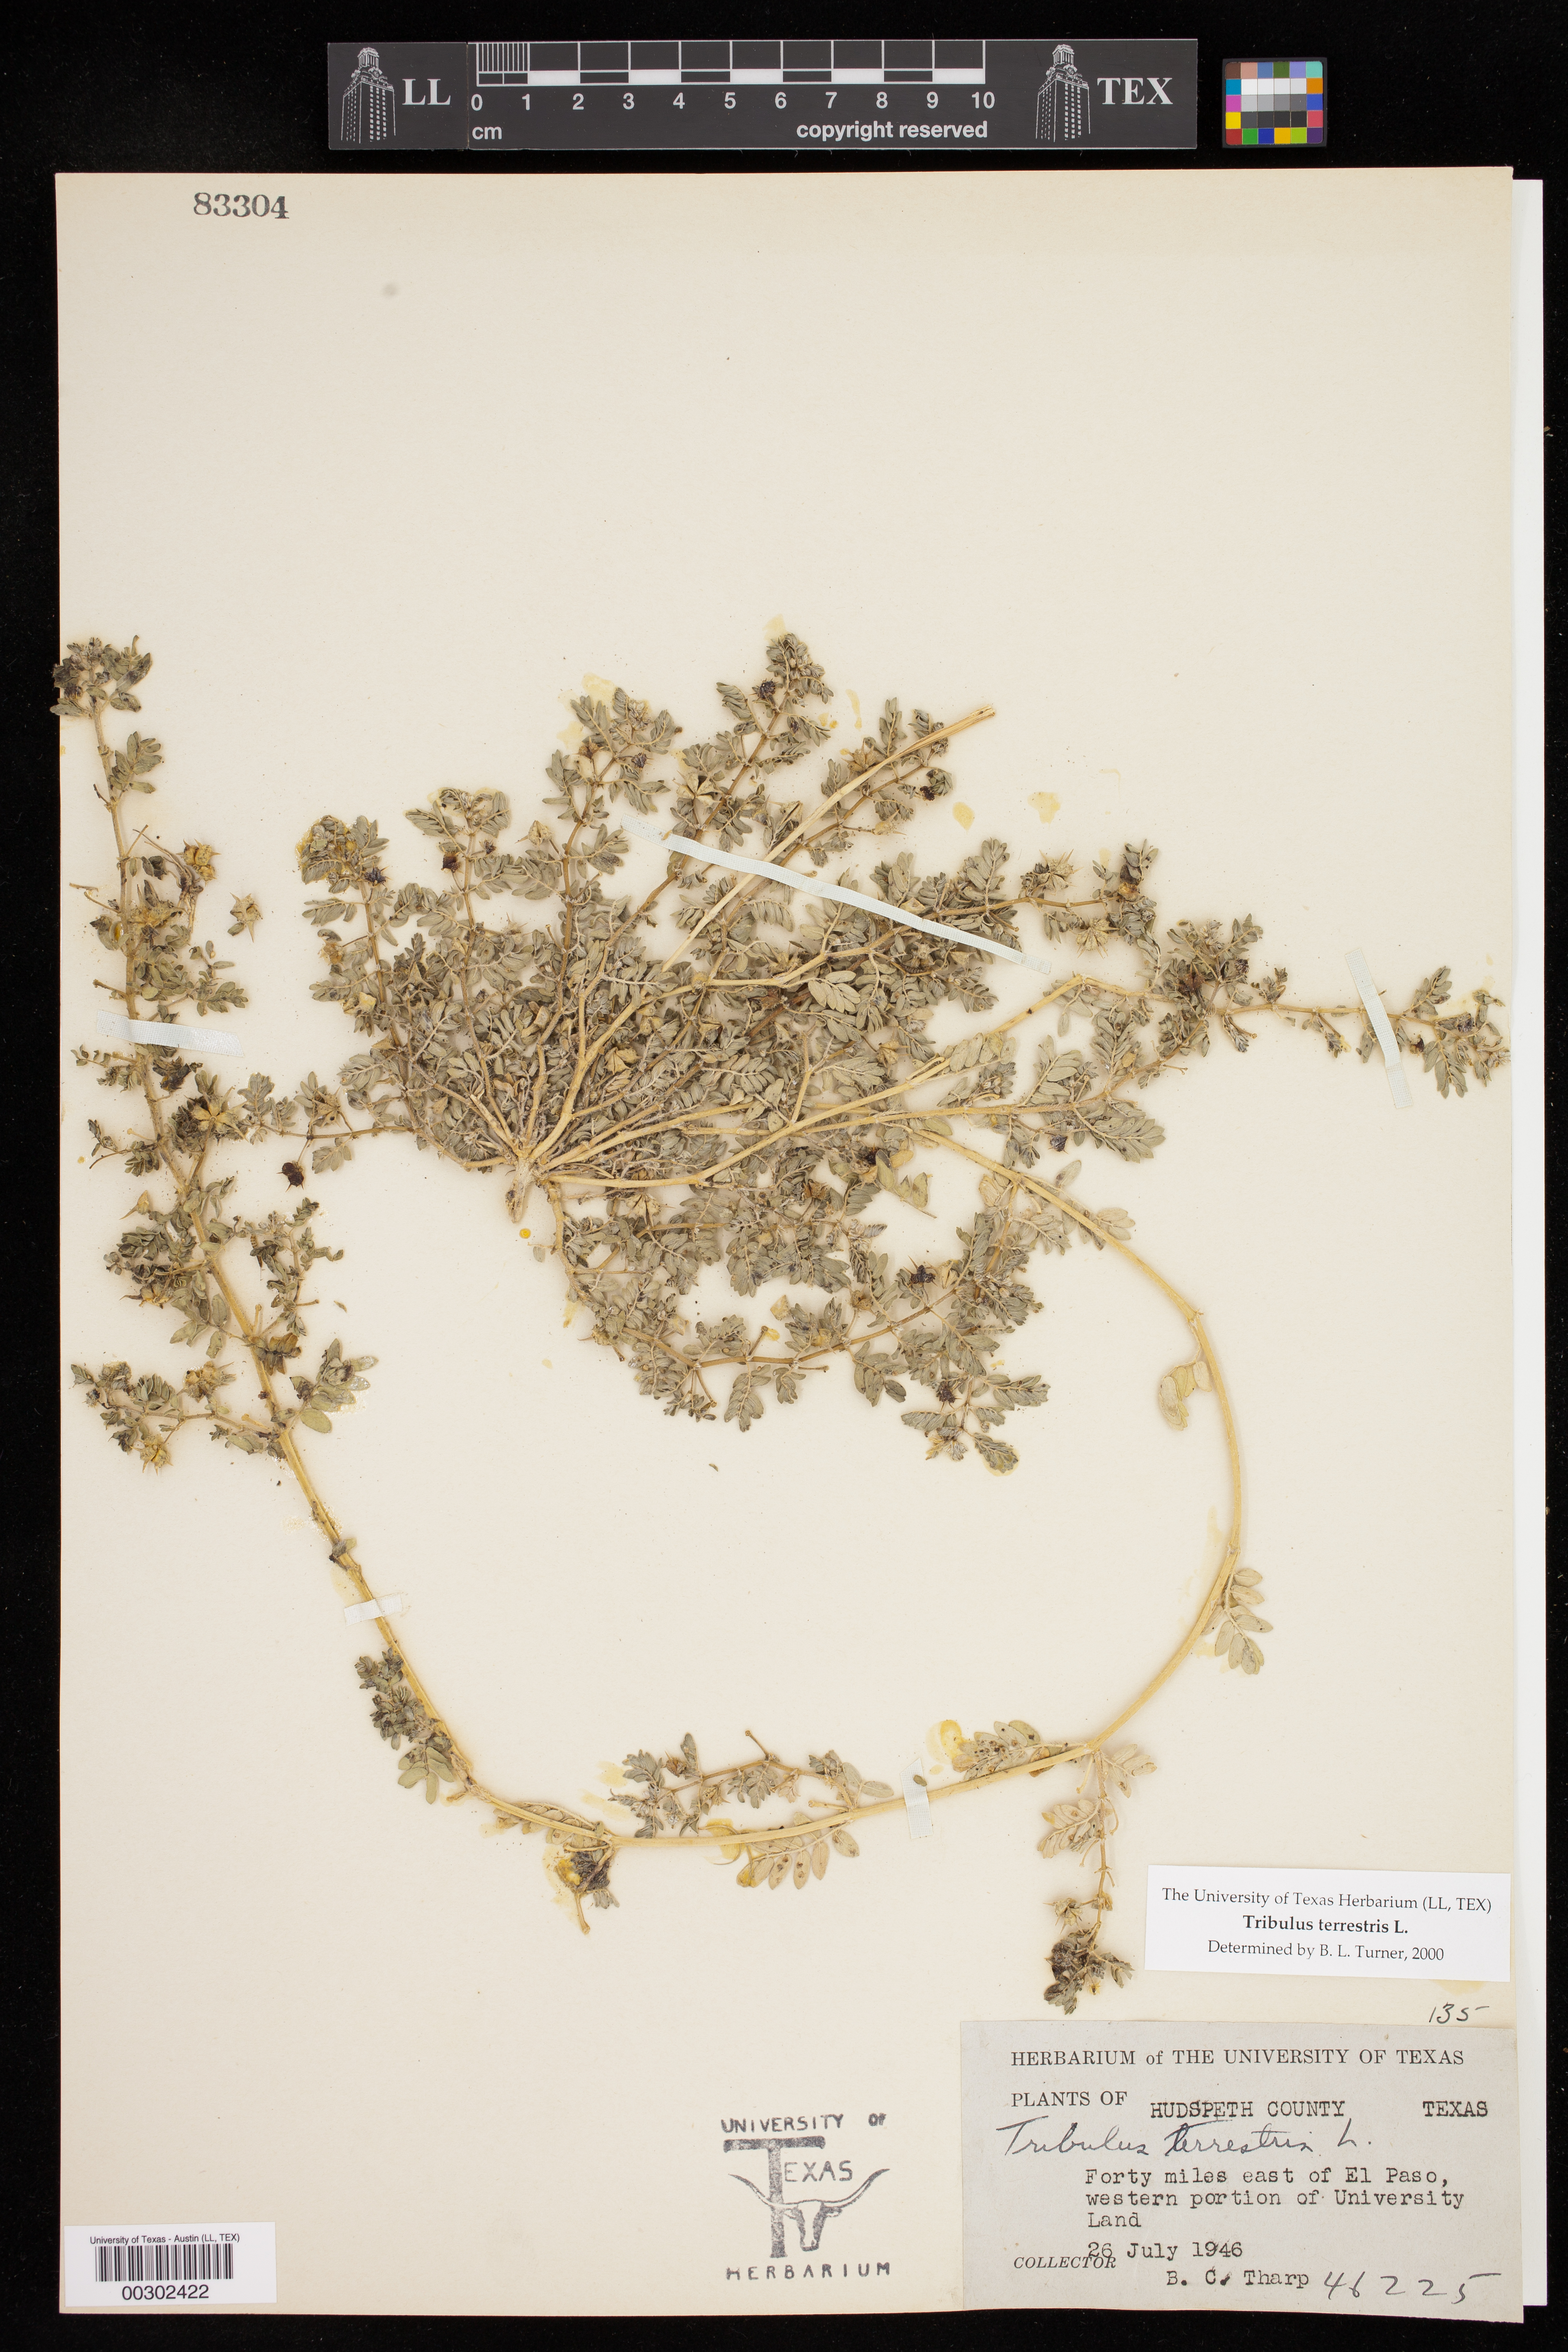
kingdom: Plantae
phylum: Tracheophyta
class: Magnoliopsida
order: Zygophyllales
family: Zygophyllaceae
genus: Tribulus
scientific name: Tribulus terrestris
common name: Puncturevine
